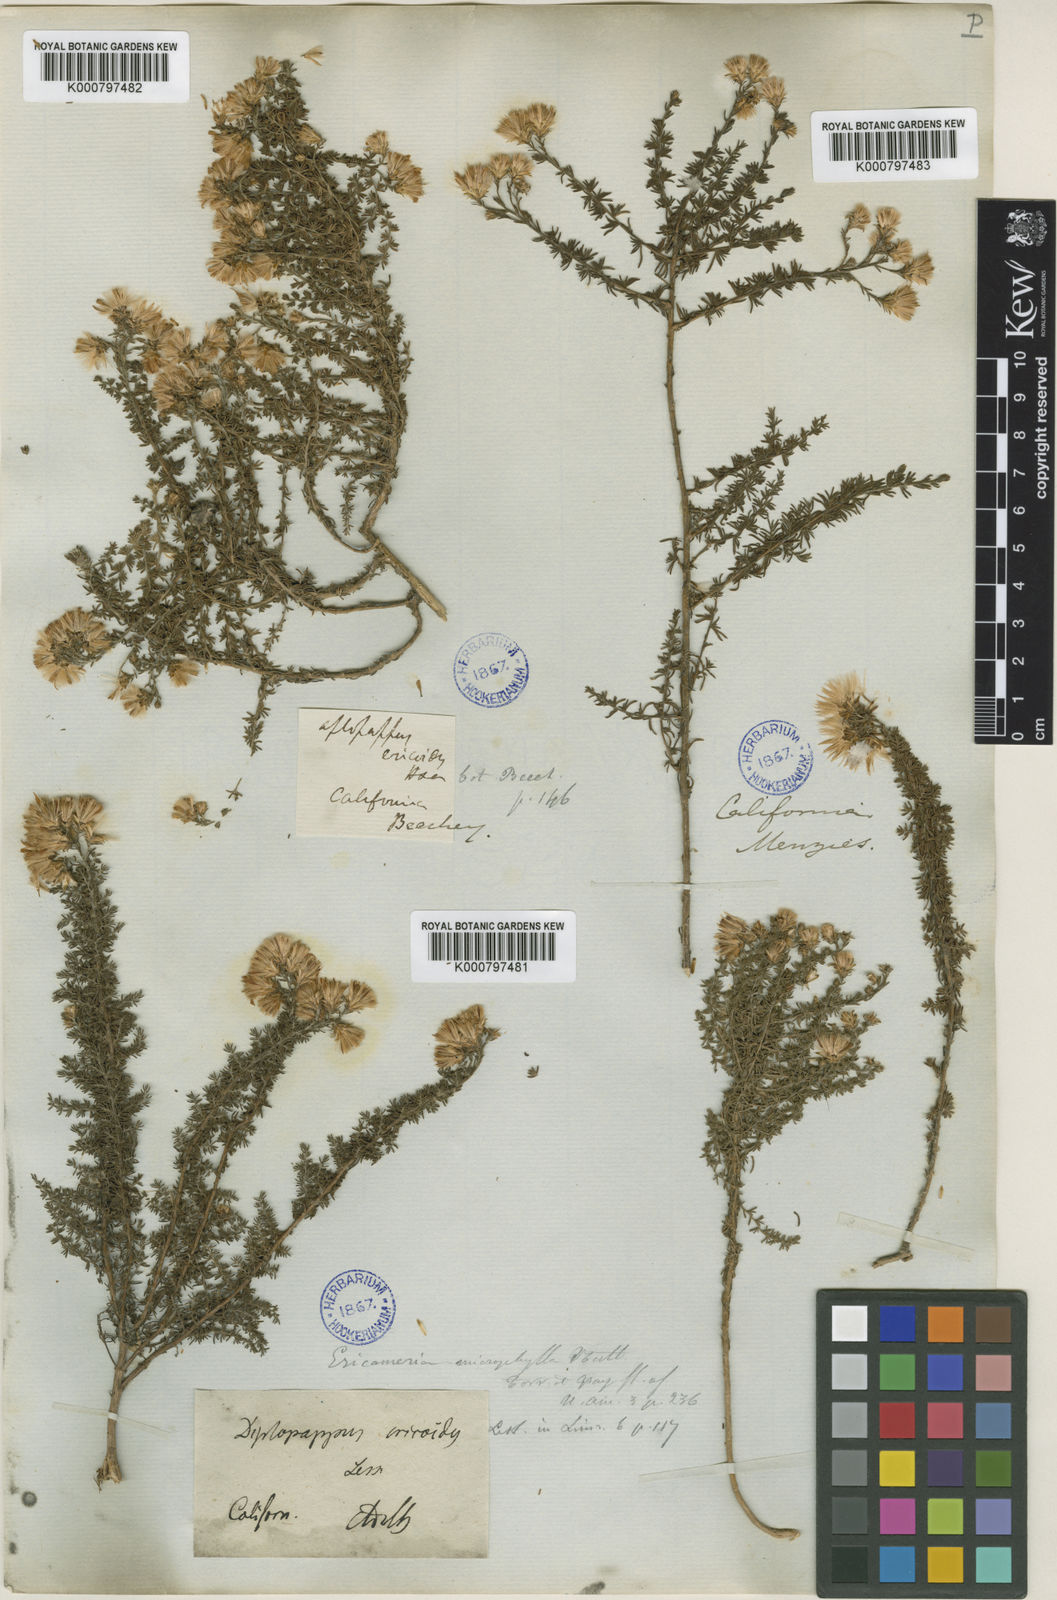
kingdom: Plantae
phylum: Tracheophyta
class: Magnoliopsida
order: Asterales
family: Asteraceae
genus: Ericameria
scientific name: Ericameria ericoides
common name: California goldenbush
